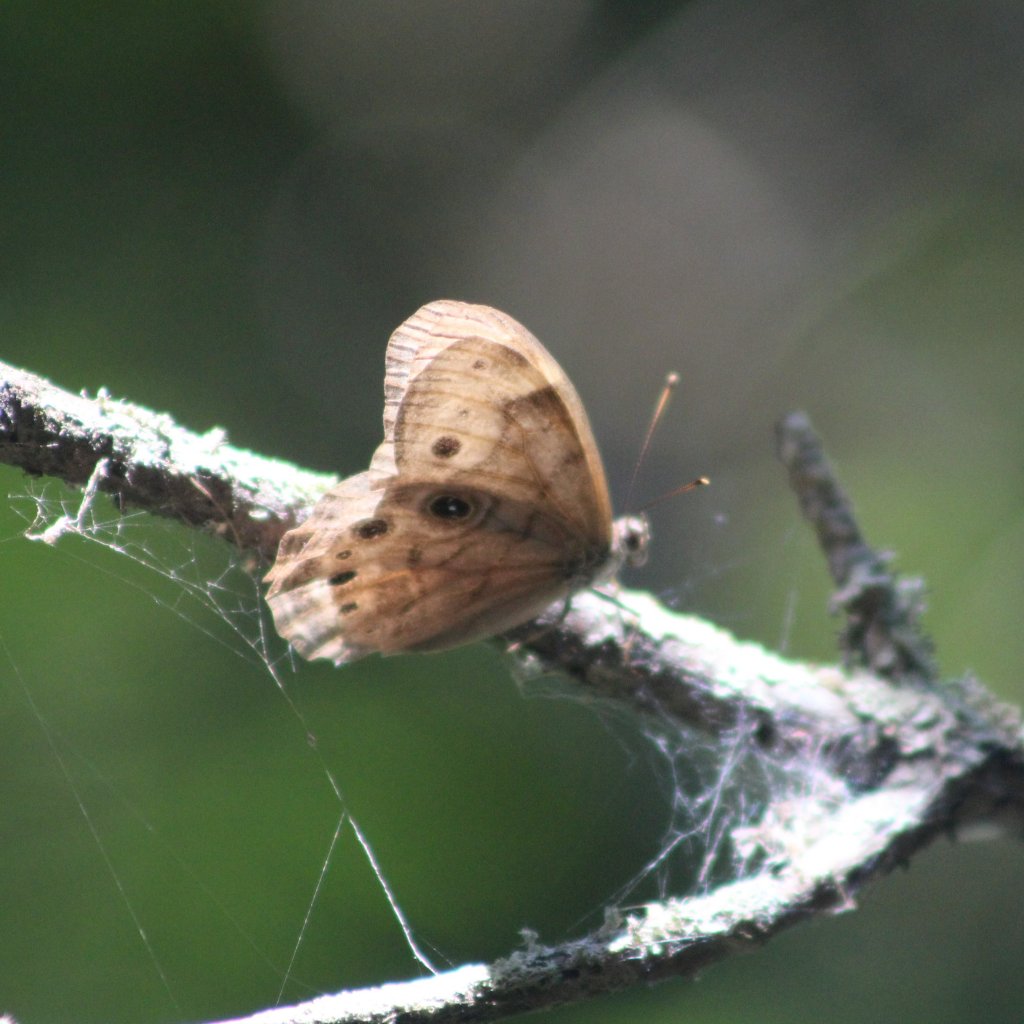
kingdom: Animalia
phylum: Arthropoda
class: Insecta
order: Lepidoptera
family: Nymphalidae
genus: Lethe
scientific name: Lethe anthedon
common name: Northern Pearly-Eye
